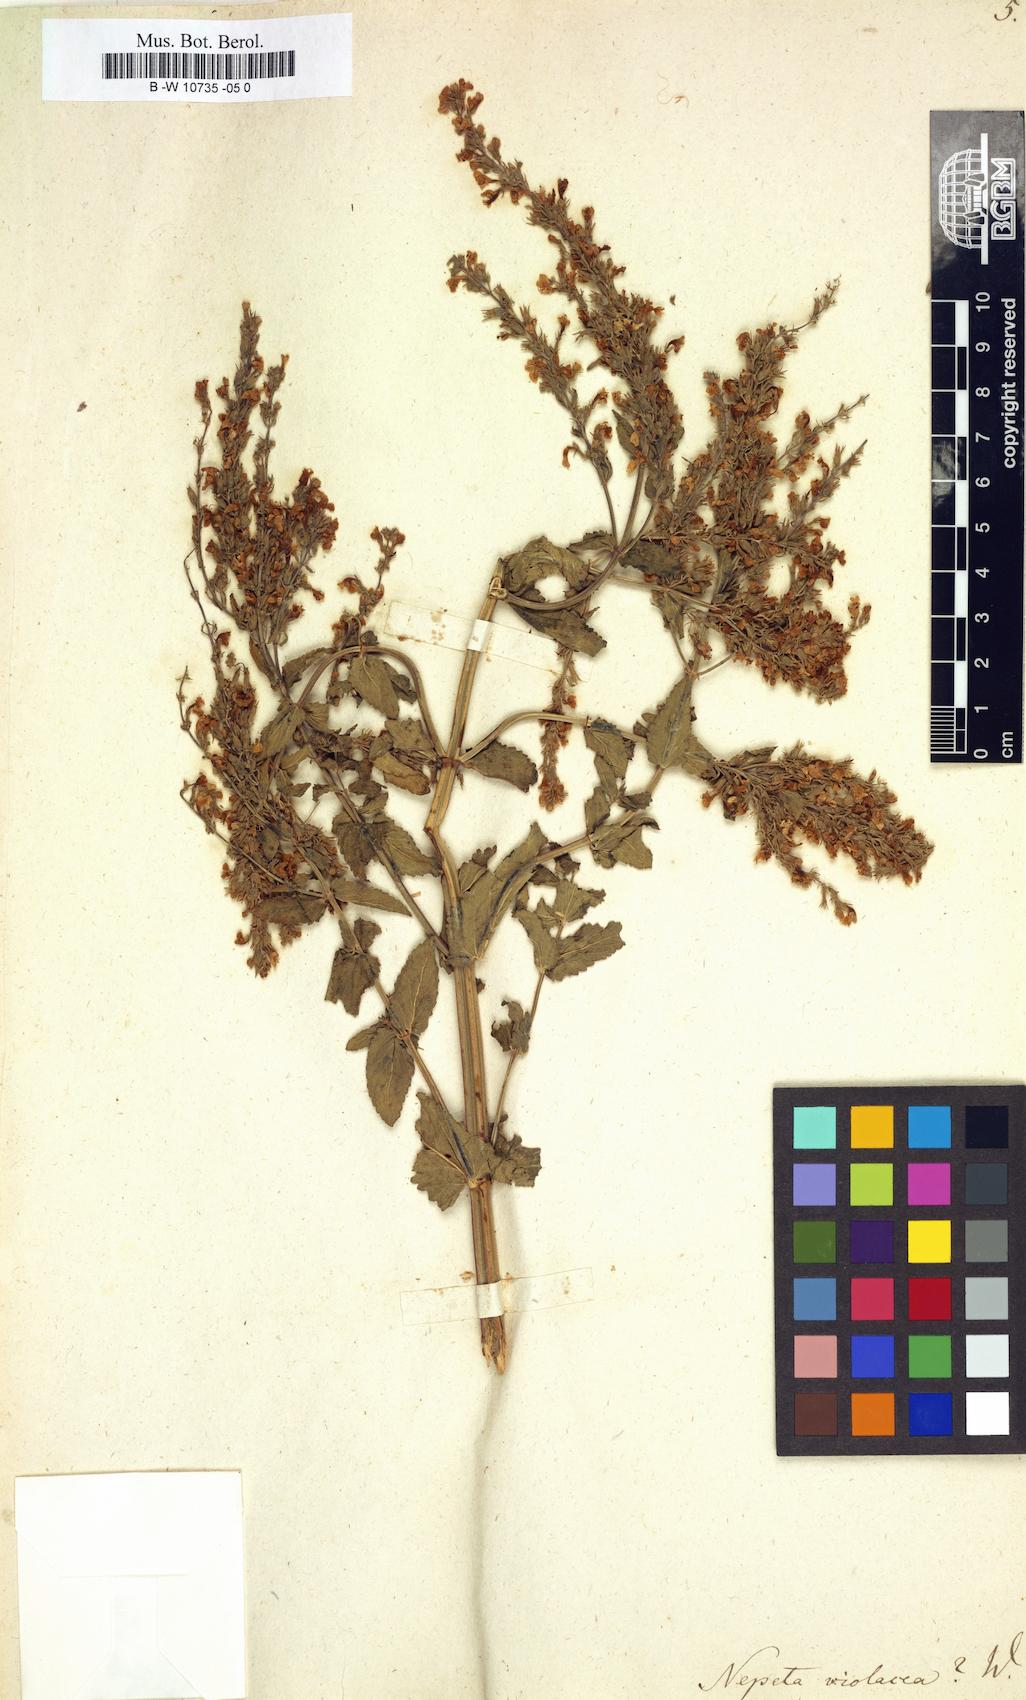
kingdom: Plantae
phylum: Tracheophyta
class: Magnoliopsida
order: Lamiales
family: Lamiaceae
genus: Nepeta
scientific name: Nepeta nuda
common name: Hairless catmint
